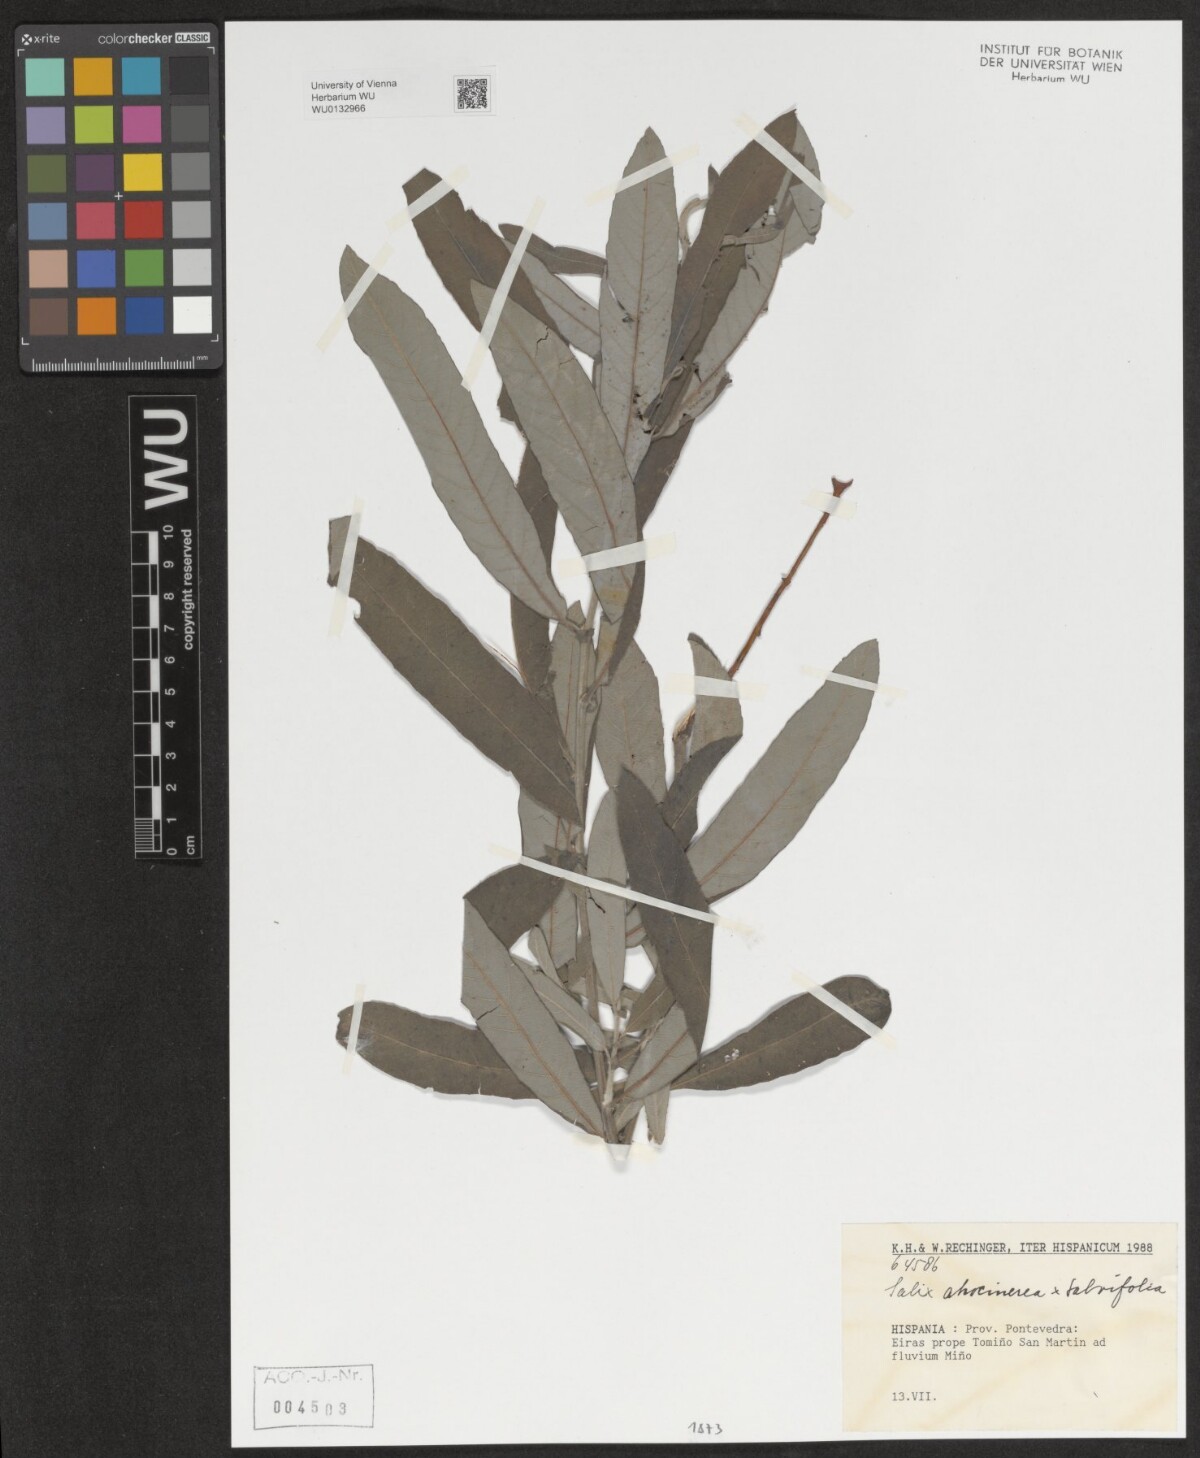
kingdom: Plantae
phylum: Tracheophyta
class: Magnoliopsida
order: Malpighiales
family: Salicaceae
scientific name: Salicaceae
